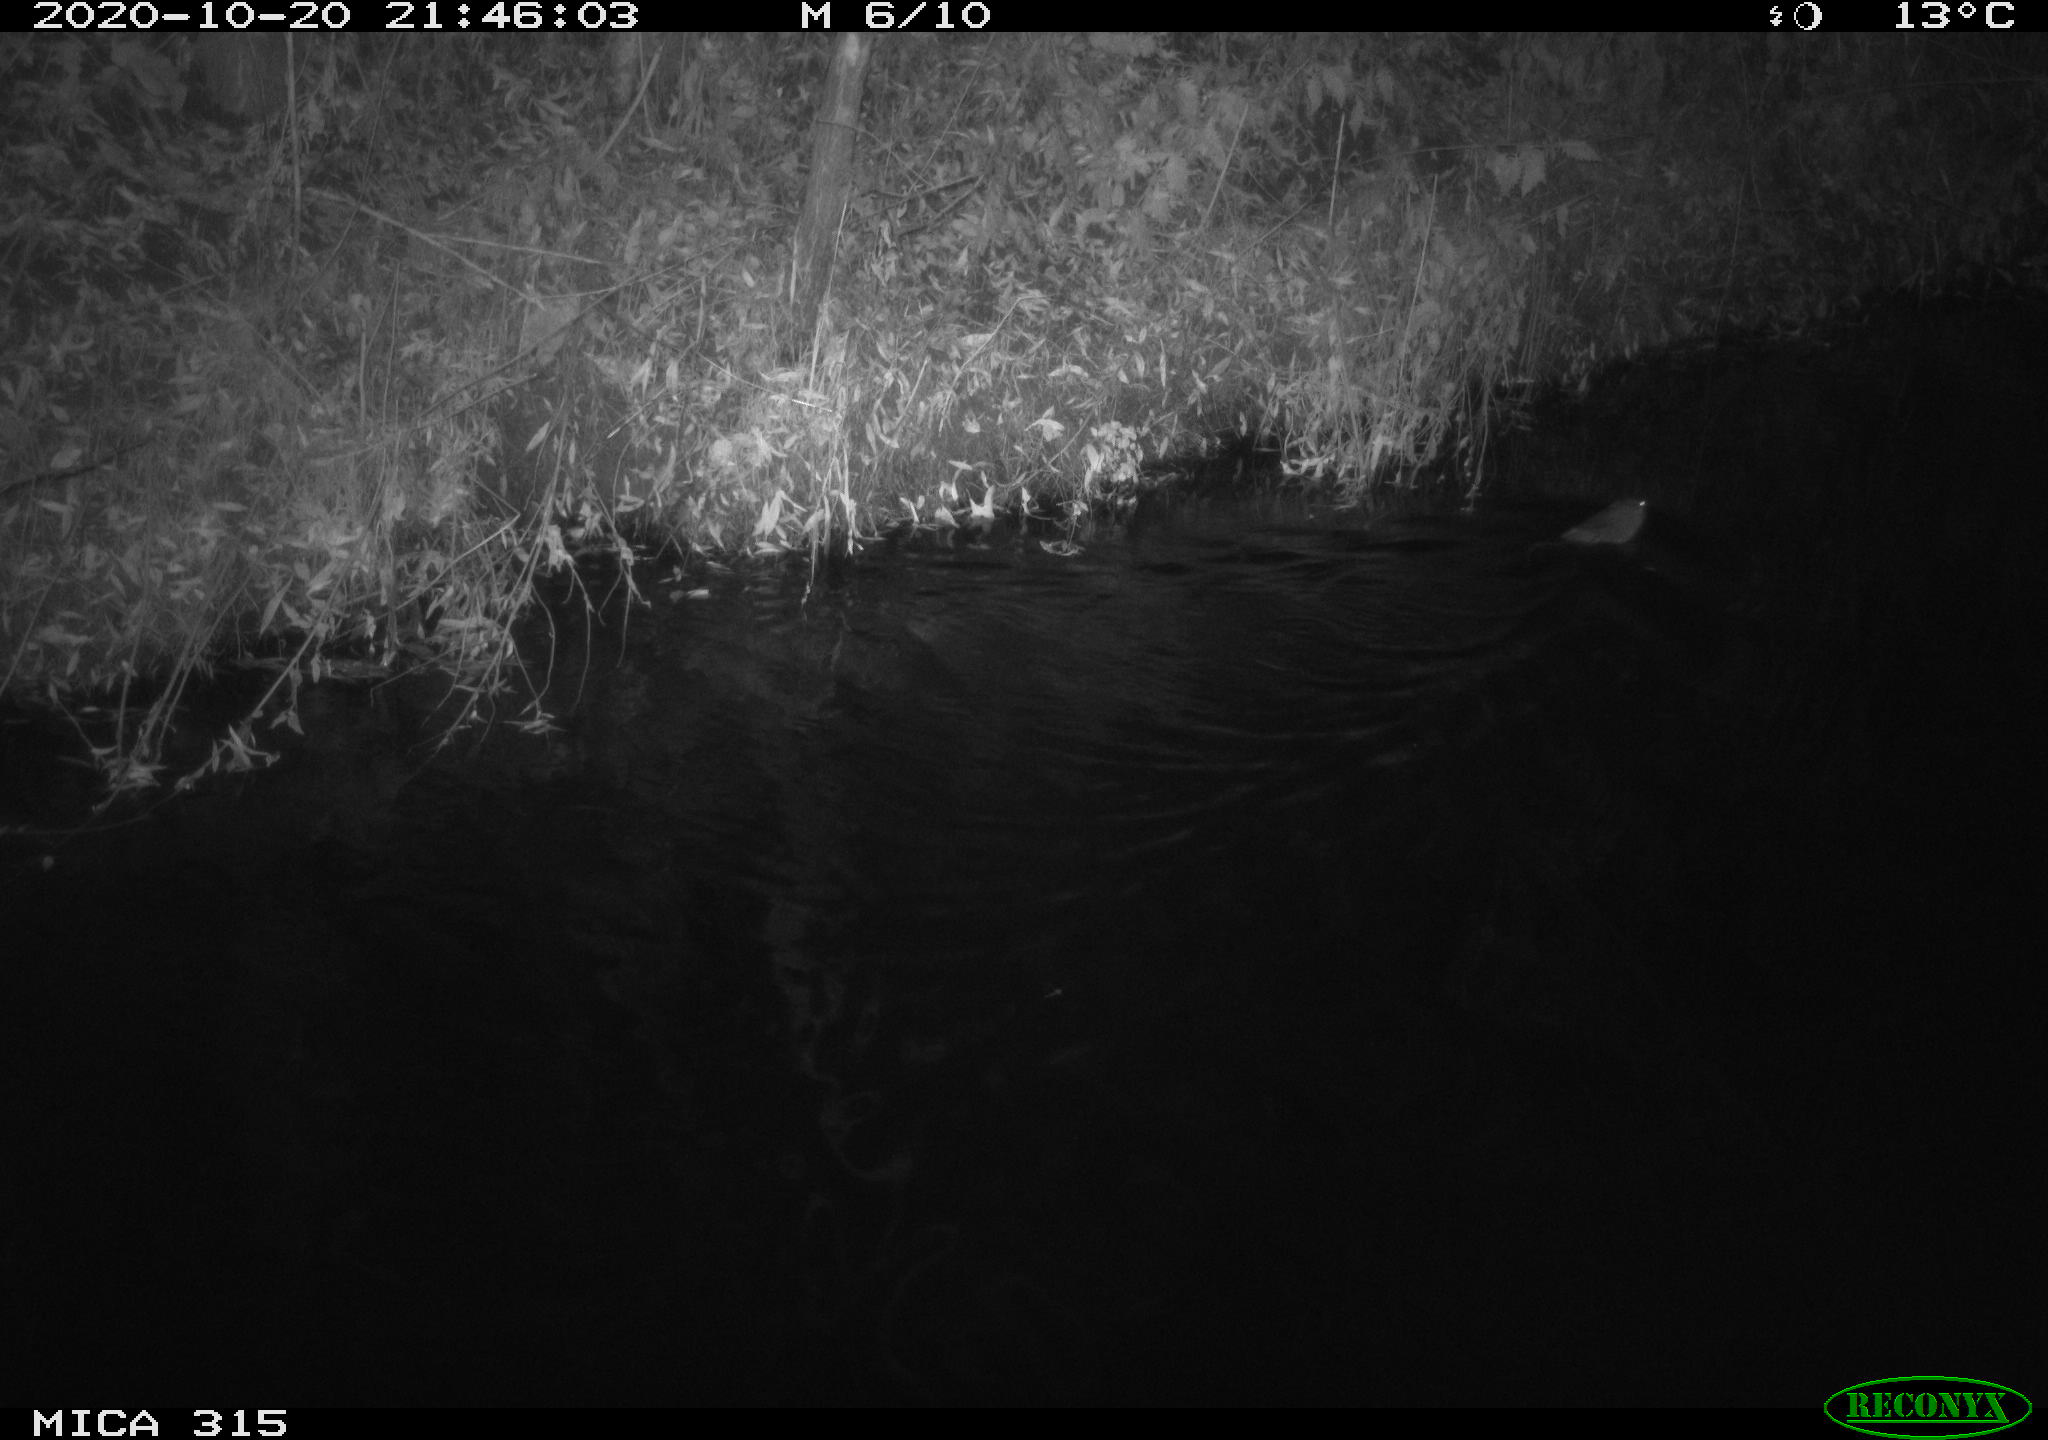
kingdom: Animalia
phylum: Chordata
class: Mammalia
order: Rodentia
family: Cricetidae
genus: Ondatra
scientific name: Ondatra zibethicus
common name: Muskrat
